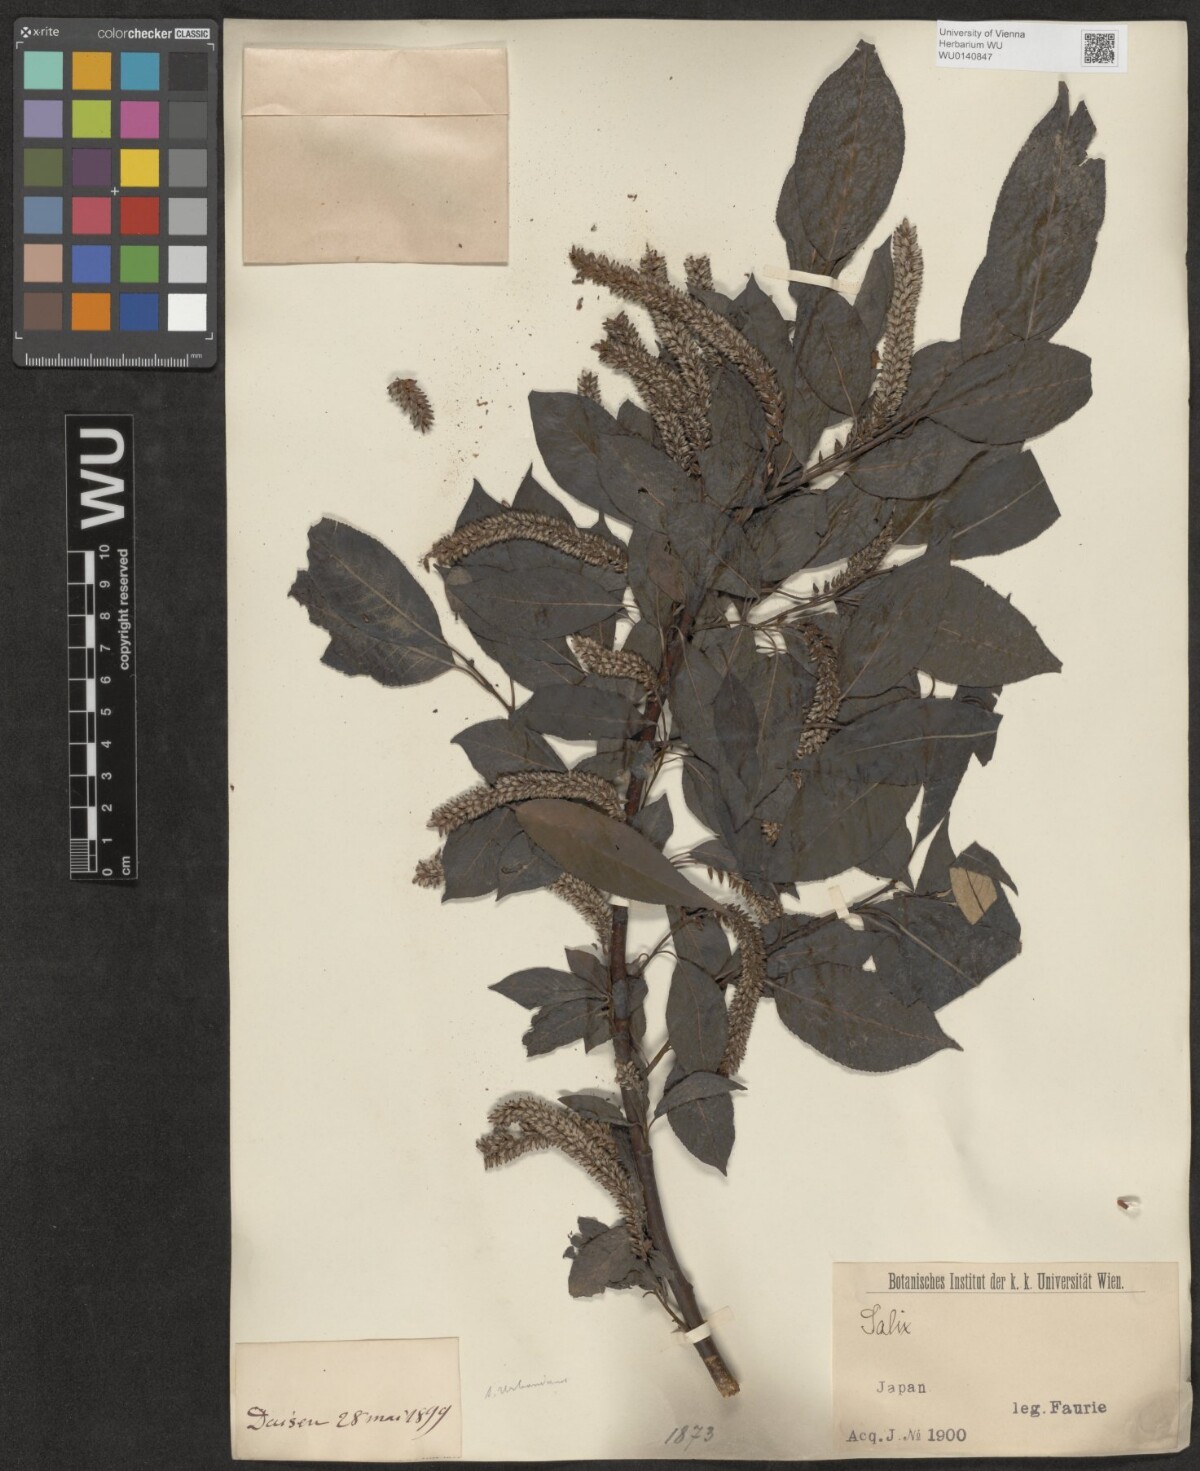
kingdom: Plantae
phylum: Tracheophyta
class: Magnoliopsida
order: Malpighiales
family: Salicaceae
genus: Salix
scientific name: Salix
